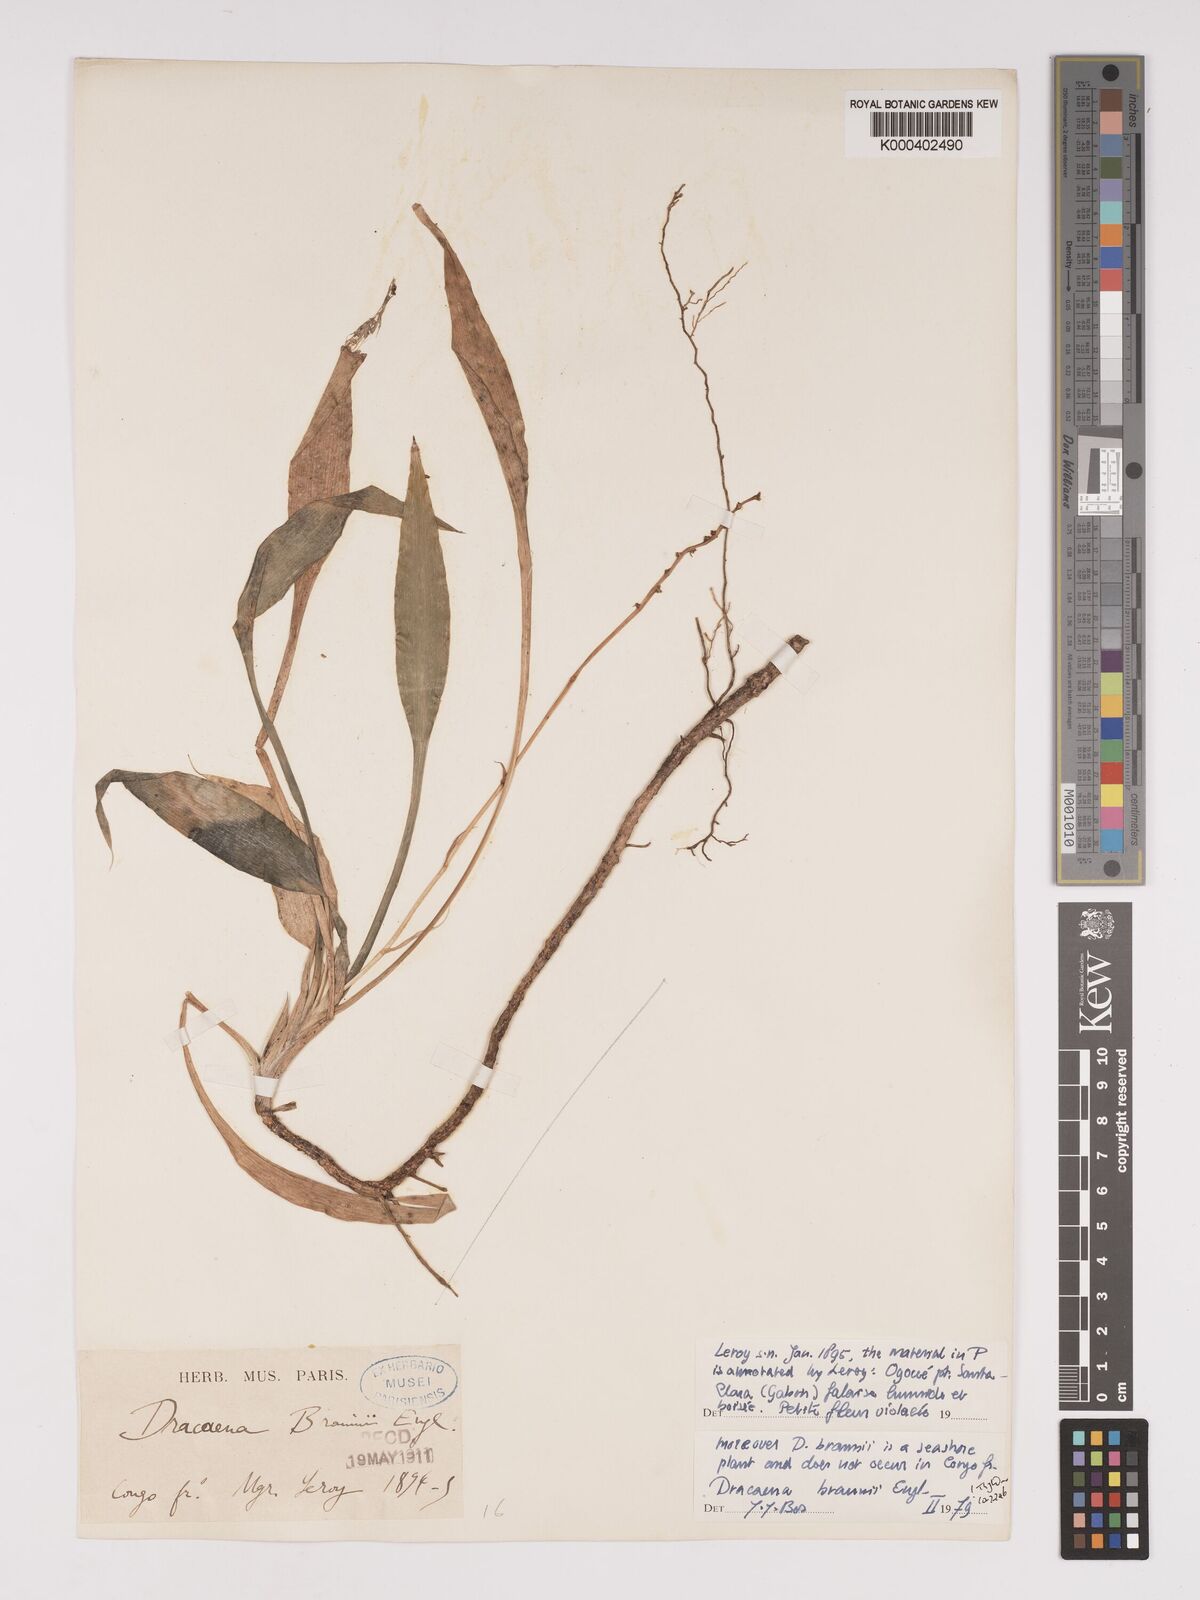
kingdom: Plantae
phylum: Tracheophyta
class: Liliopsida
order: Asparagales
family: Asparagaceae
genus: Dracaena
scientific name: Dracaena braunii
